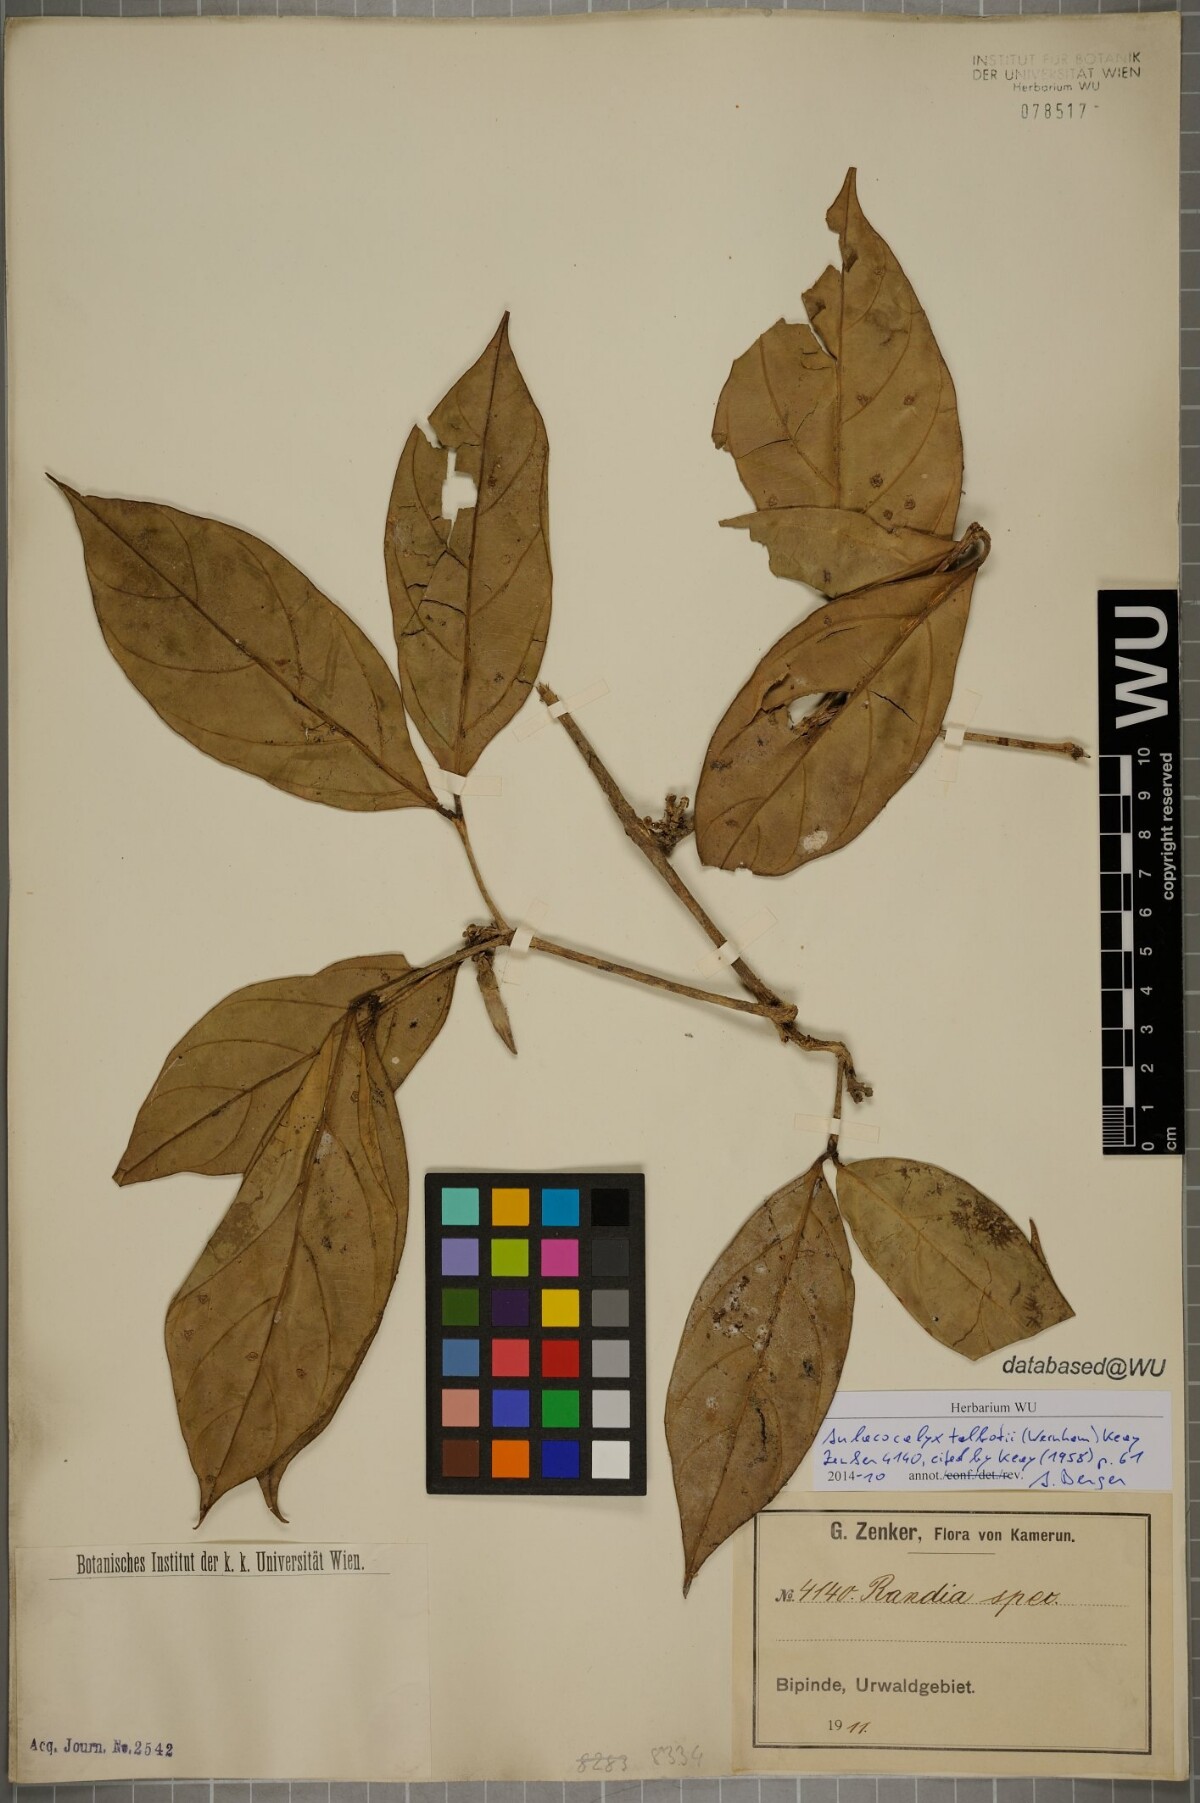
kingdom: Plantae
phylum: Tracheophyta
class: Magnoliopsida
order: Gentianales
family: Rubiaceae
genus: Aulacocalyx
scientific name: Aulacocalyx talbotii
